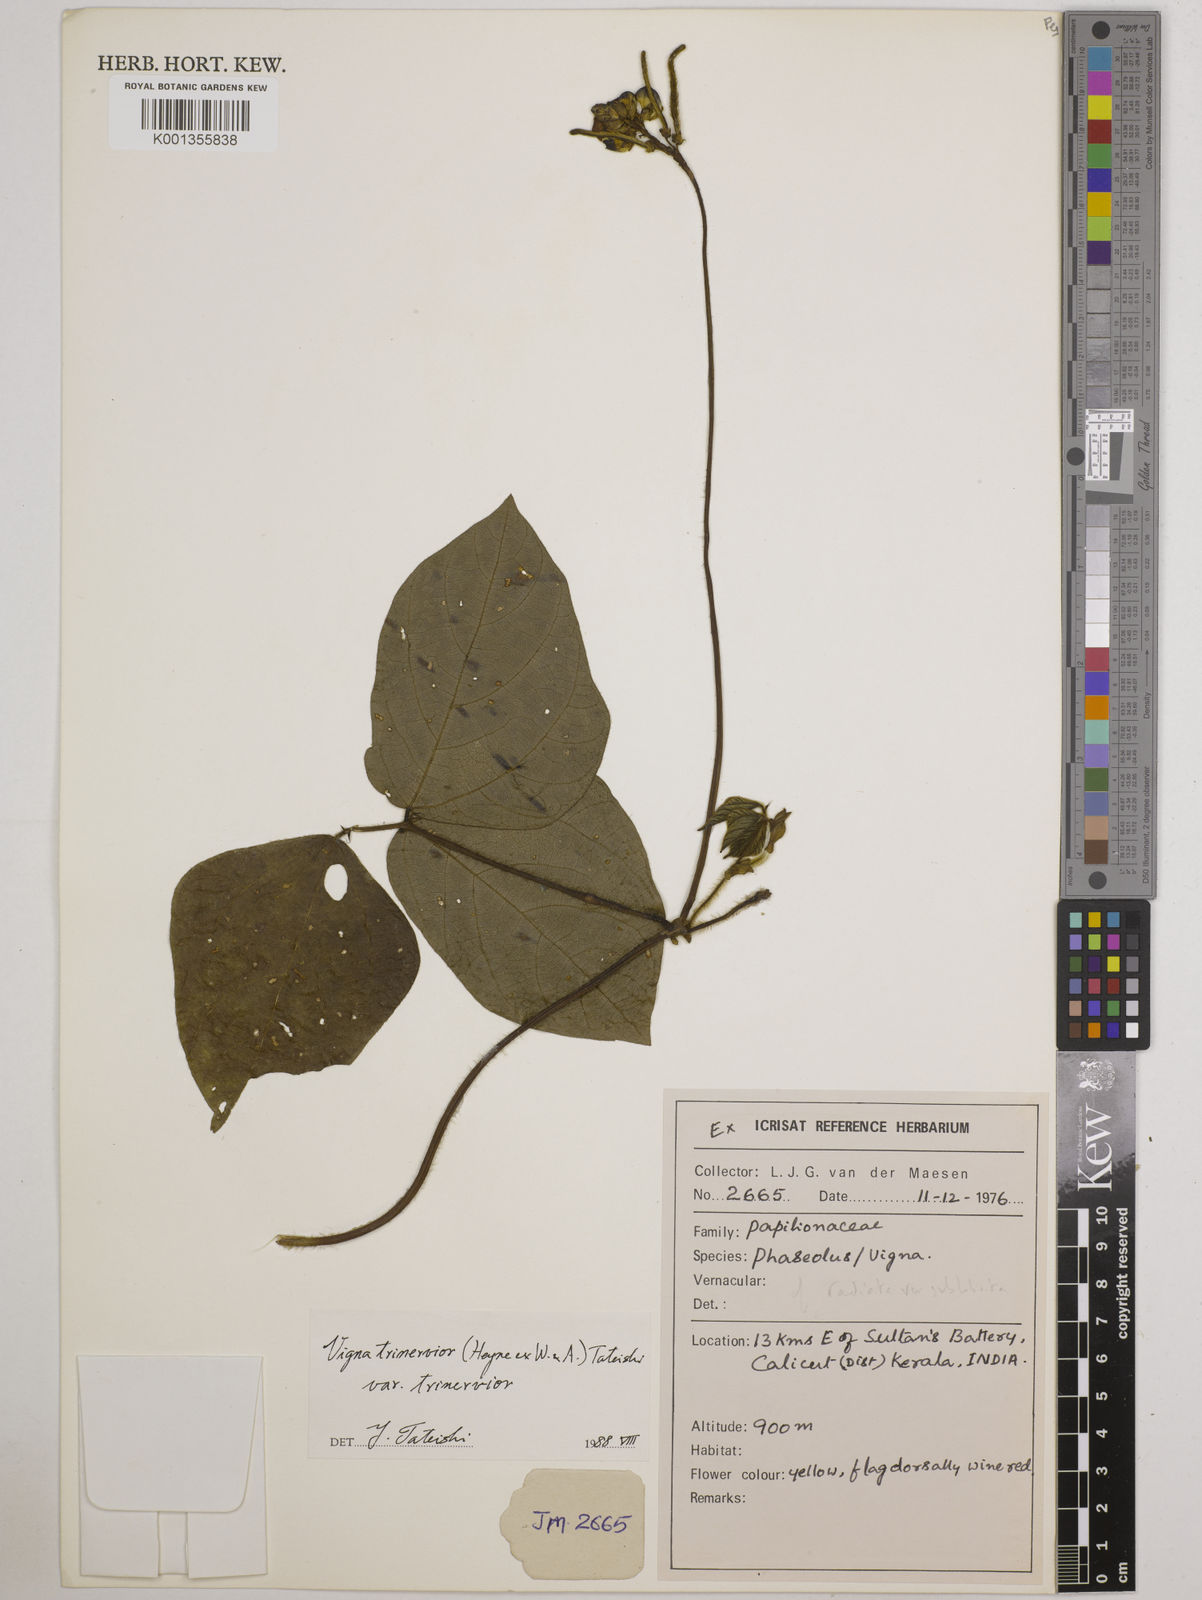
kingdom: Plantae
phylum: Tracheophyta
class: Magnoliopsida
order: Fabales
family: Fabaceae
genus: Vigna
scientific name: Vigna radiata
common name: Mung-bean
